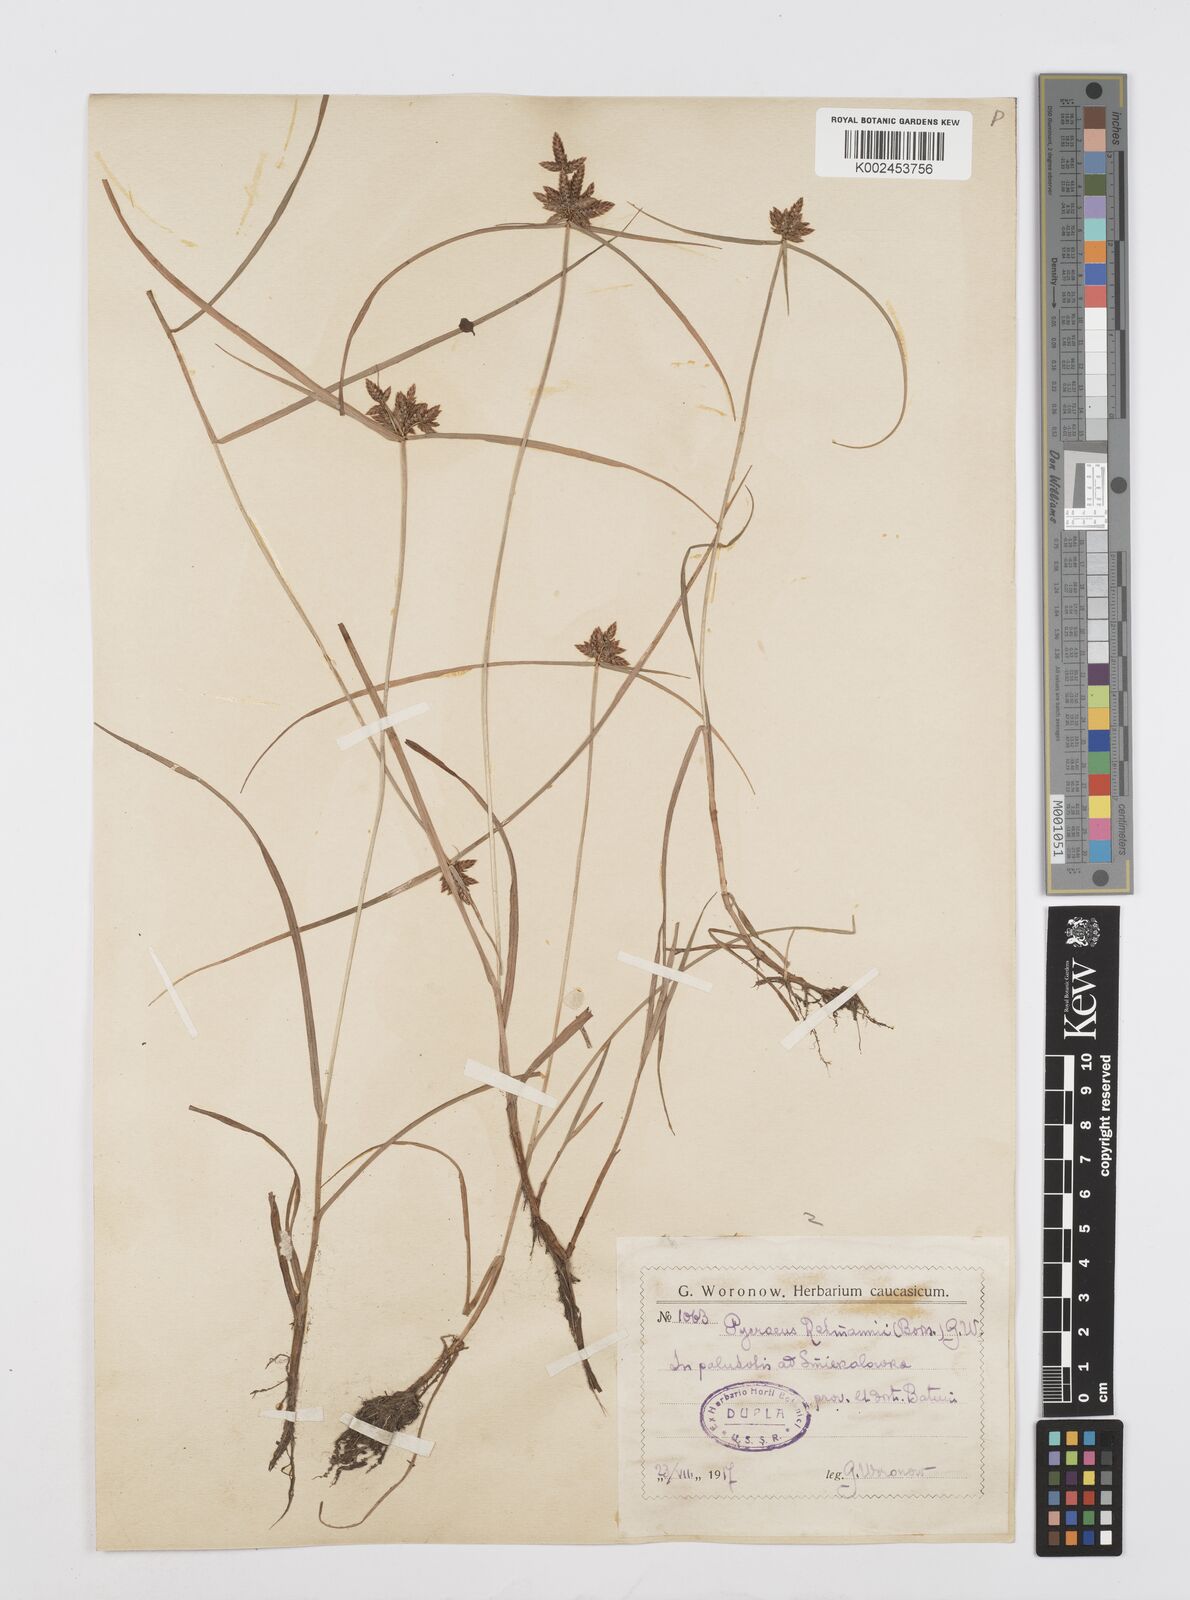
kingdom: Plantae
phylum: Tracheophyta
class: Liliopsida
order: Poales
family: Cyperaceae
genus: Cyperus
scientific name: Cyperus sanguinolentus
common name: Purpleglume flatsedge
